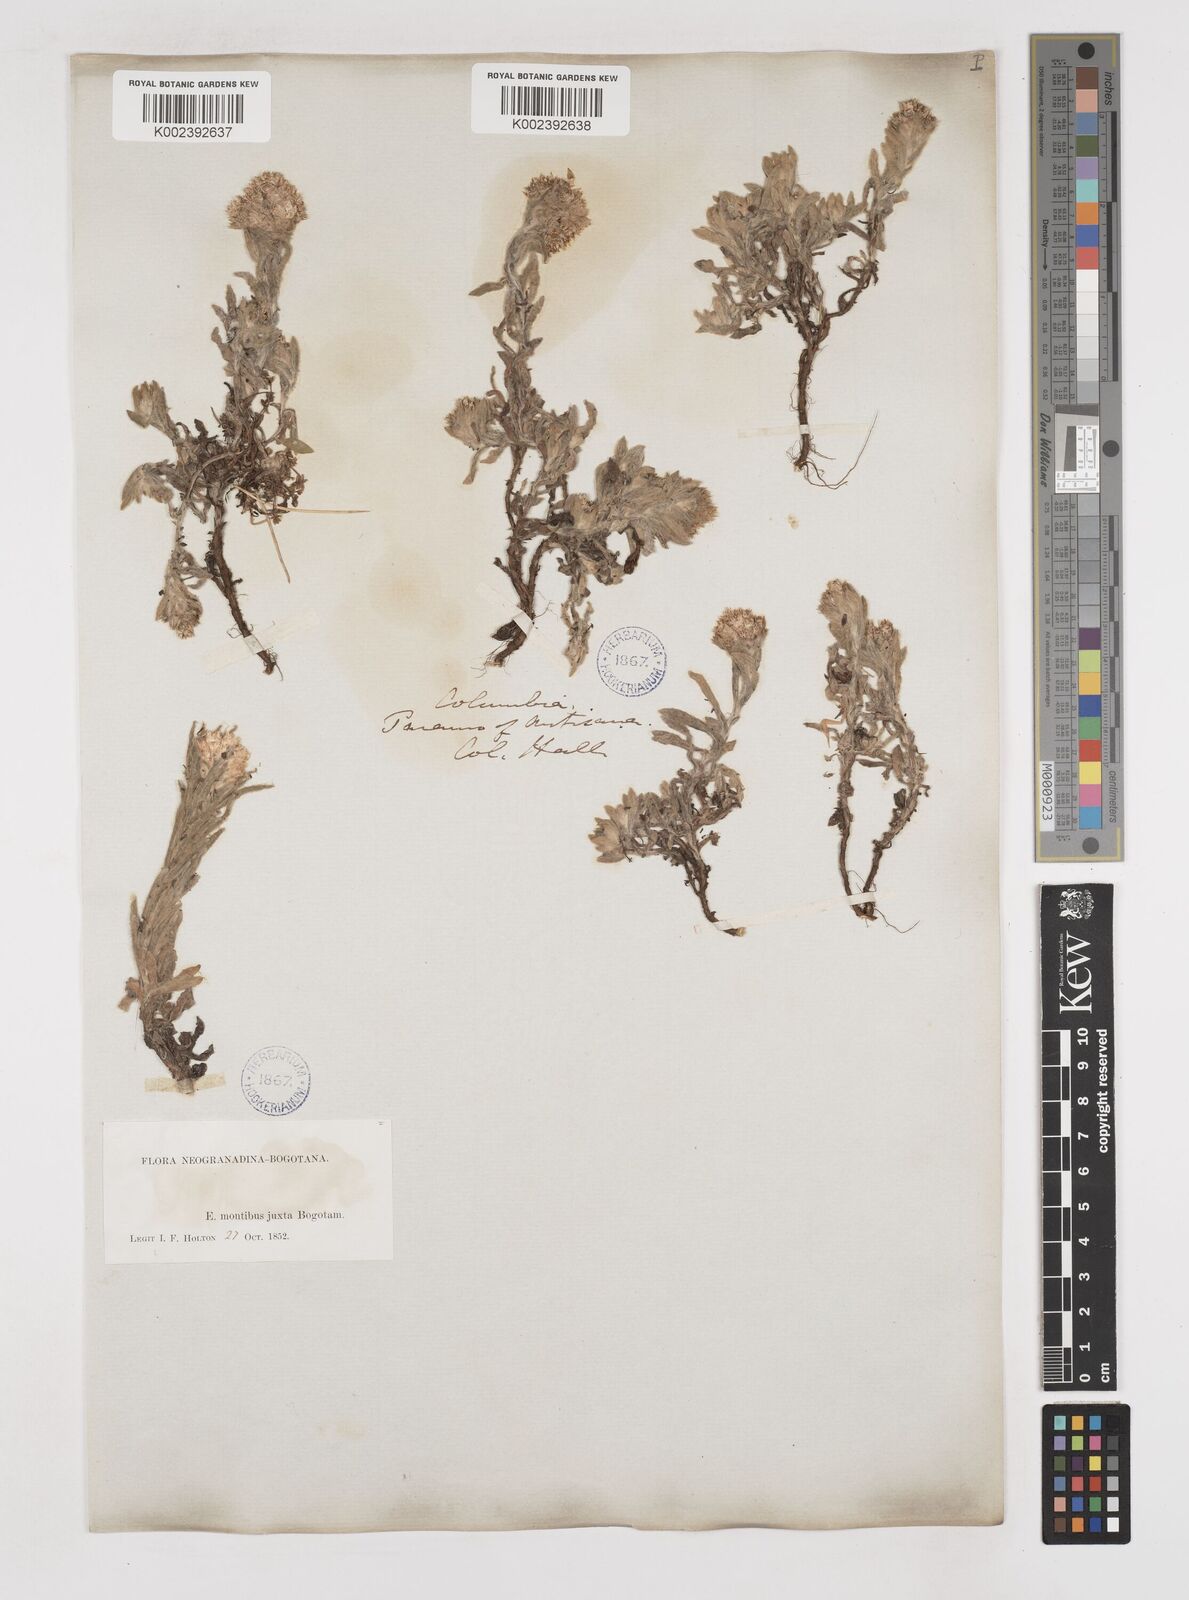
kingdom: Plantae
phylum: Tracheophyta
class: Magnoliopsida
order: Asterales
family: Asteraceae
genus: Gnaphalium
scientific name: Gnaphalium
